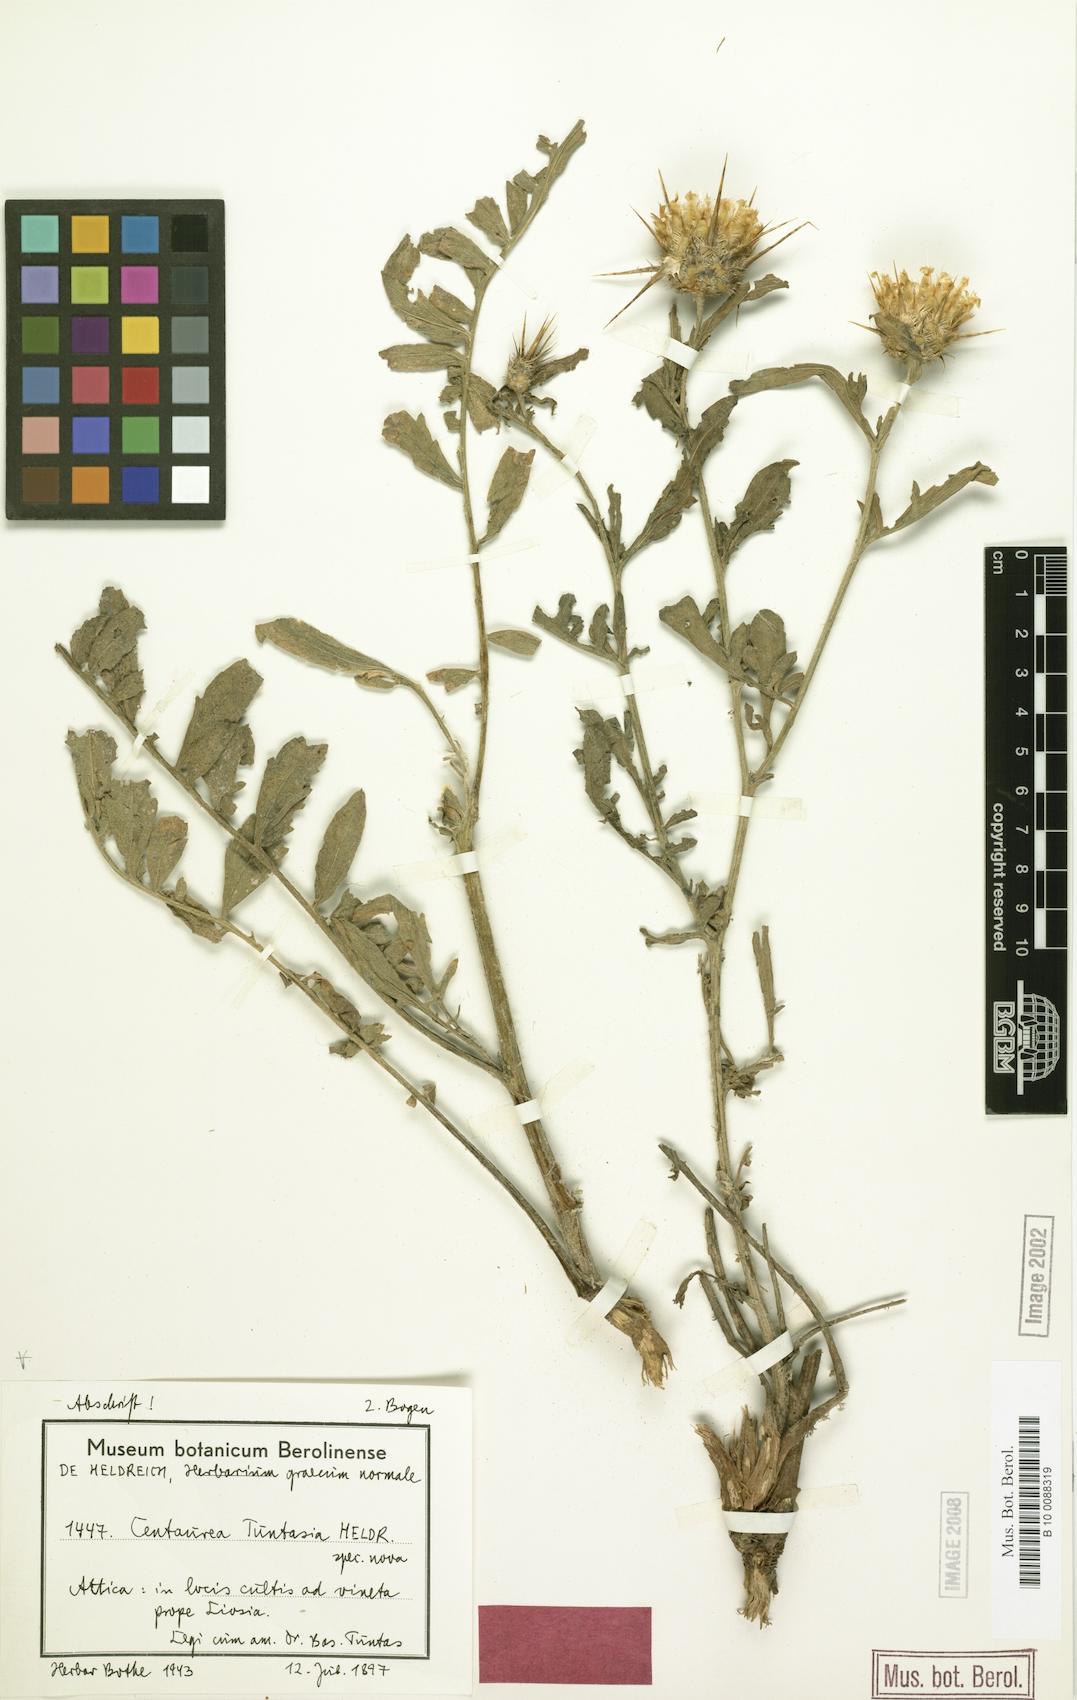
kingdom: Plantae
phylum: Tracheophyta
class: Magnoliopsida
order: Asterales
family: Asteraceae
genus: Centaurea
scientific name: Centaurea tuntasia
